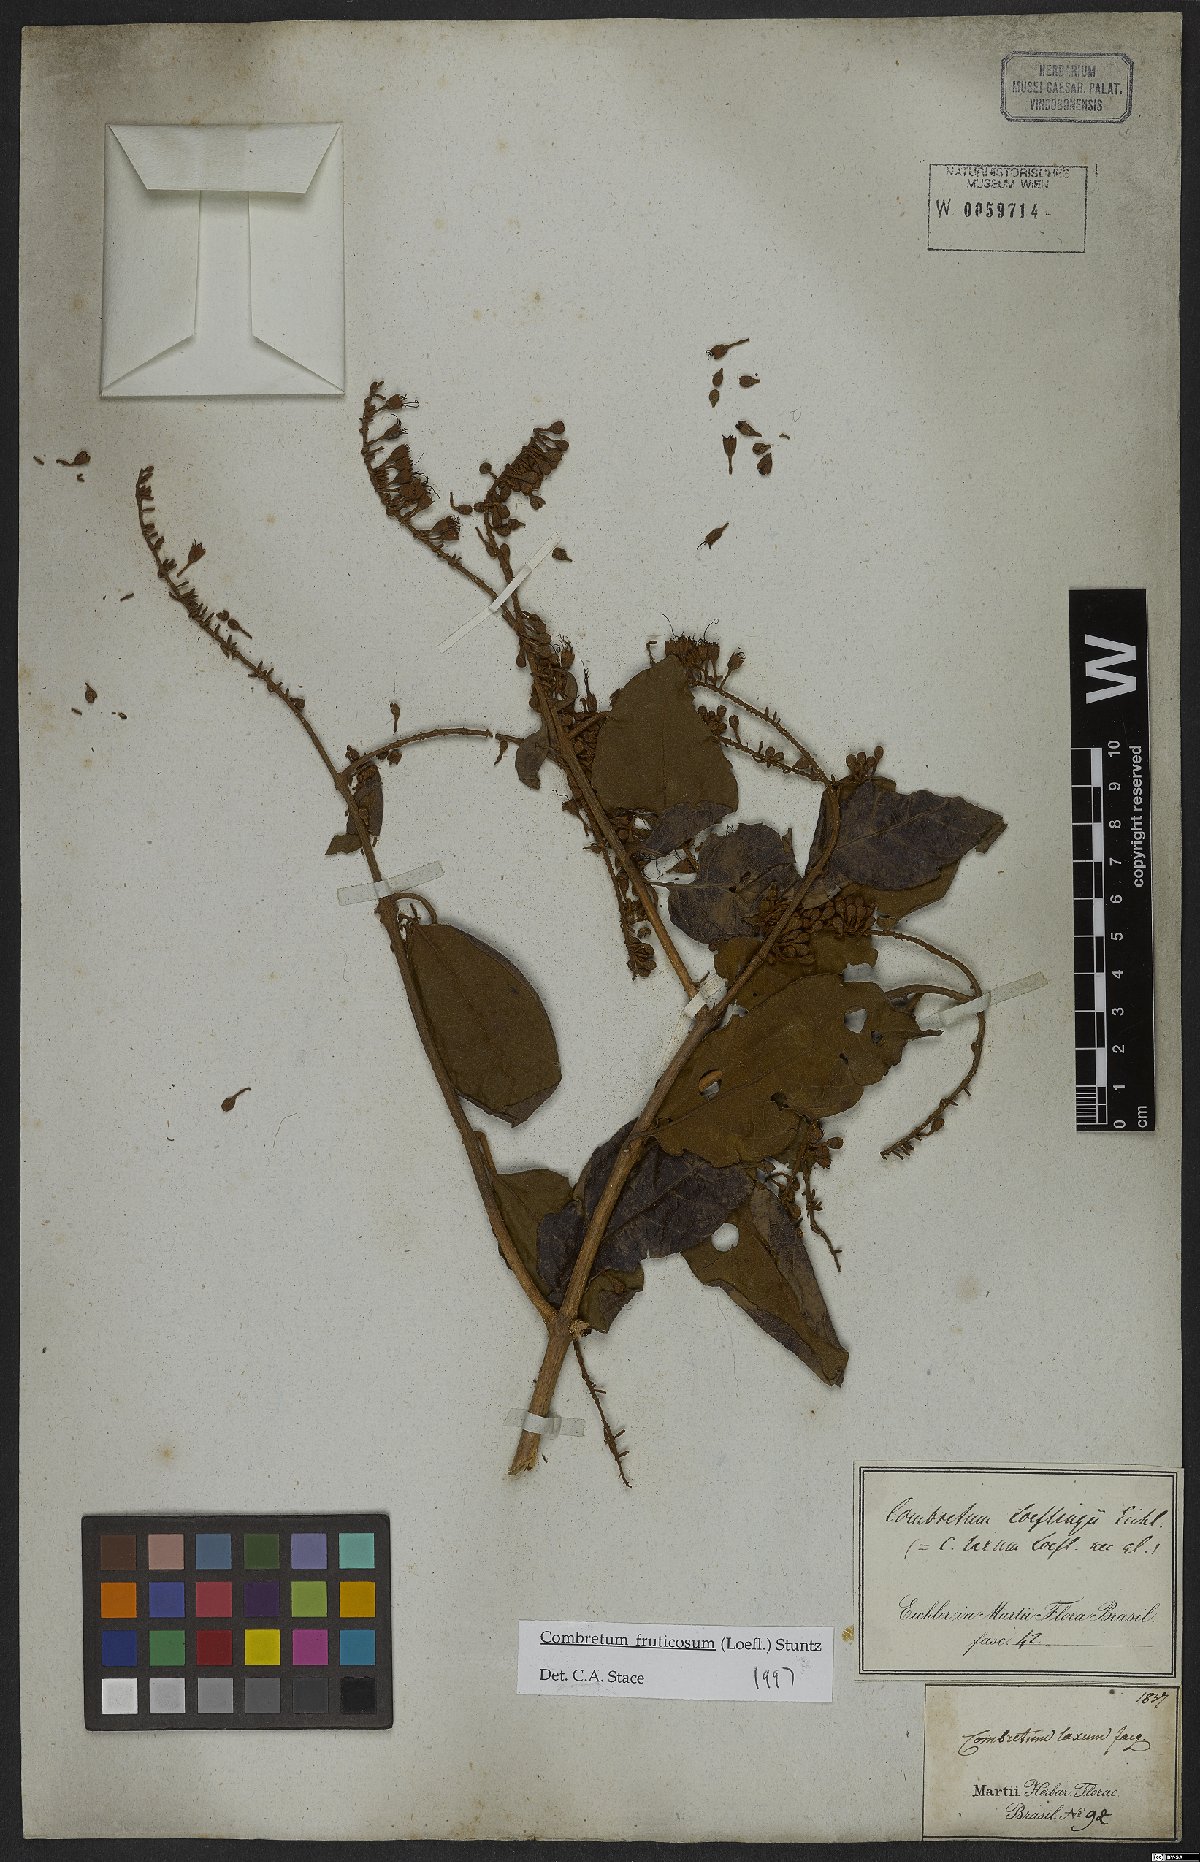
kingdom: Plantae
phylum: Tracheophyta
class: Magnoliopsida
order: Myrtales
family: Combretaceae
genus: Combretum
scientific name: Combretum fruticosum
